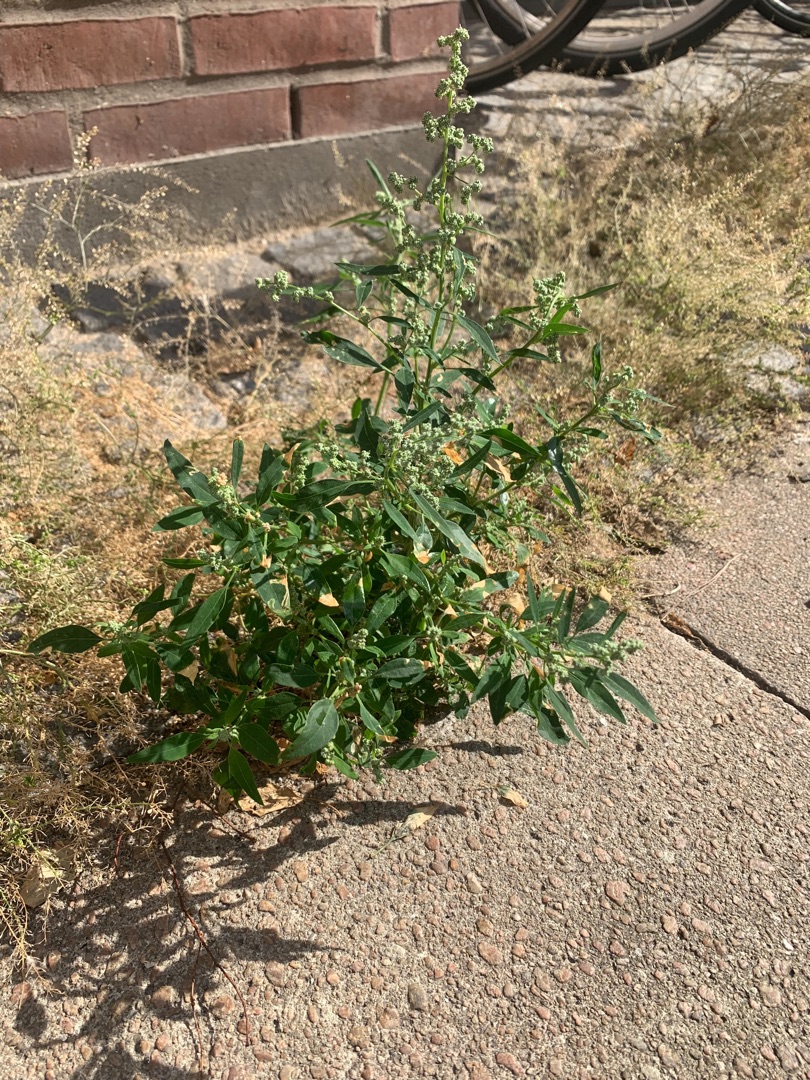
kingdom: Plantae
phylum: Tracheophyta
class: Magnoliopsida
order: Caryophyllales
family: Amaranthaceae
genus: Chenopodium
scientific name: Chenopodium pratericola
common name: Finbladet gåsefod
